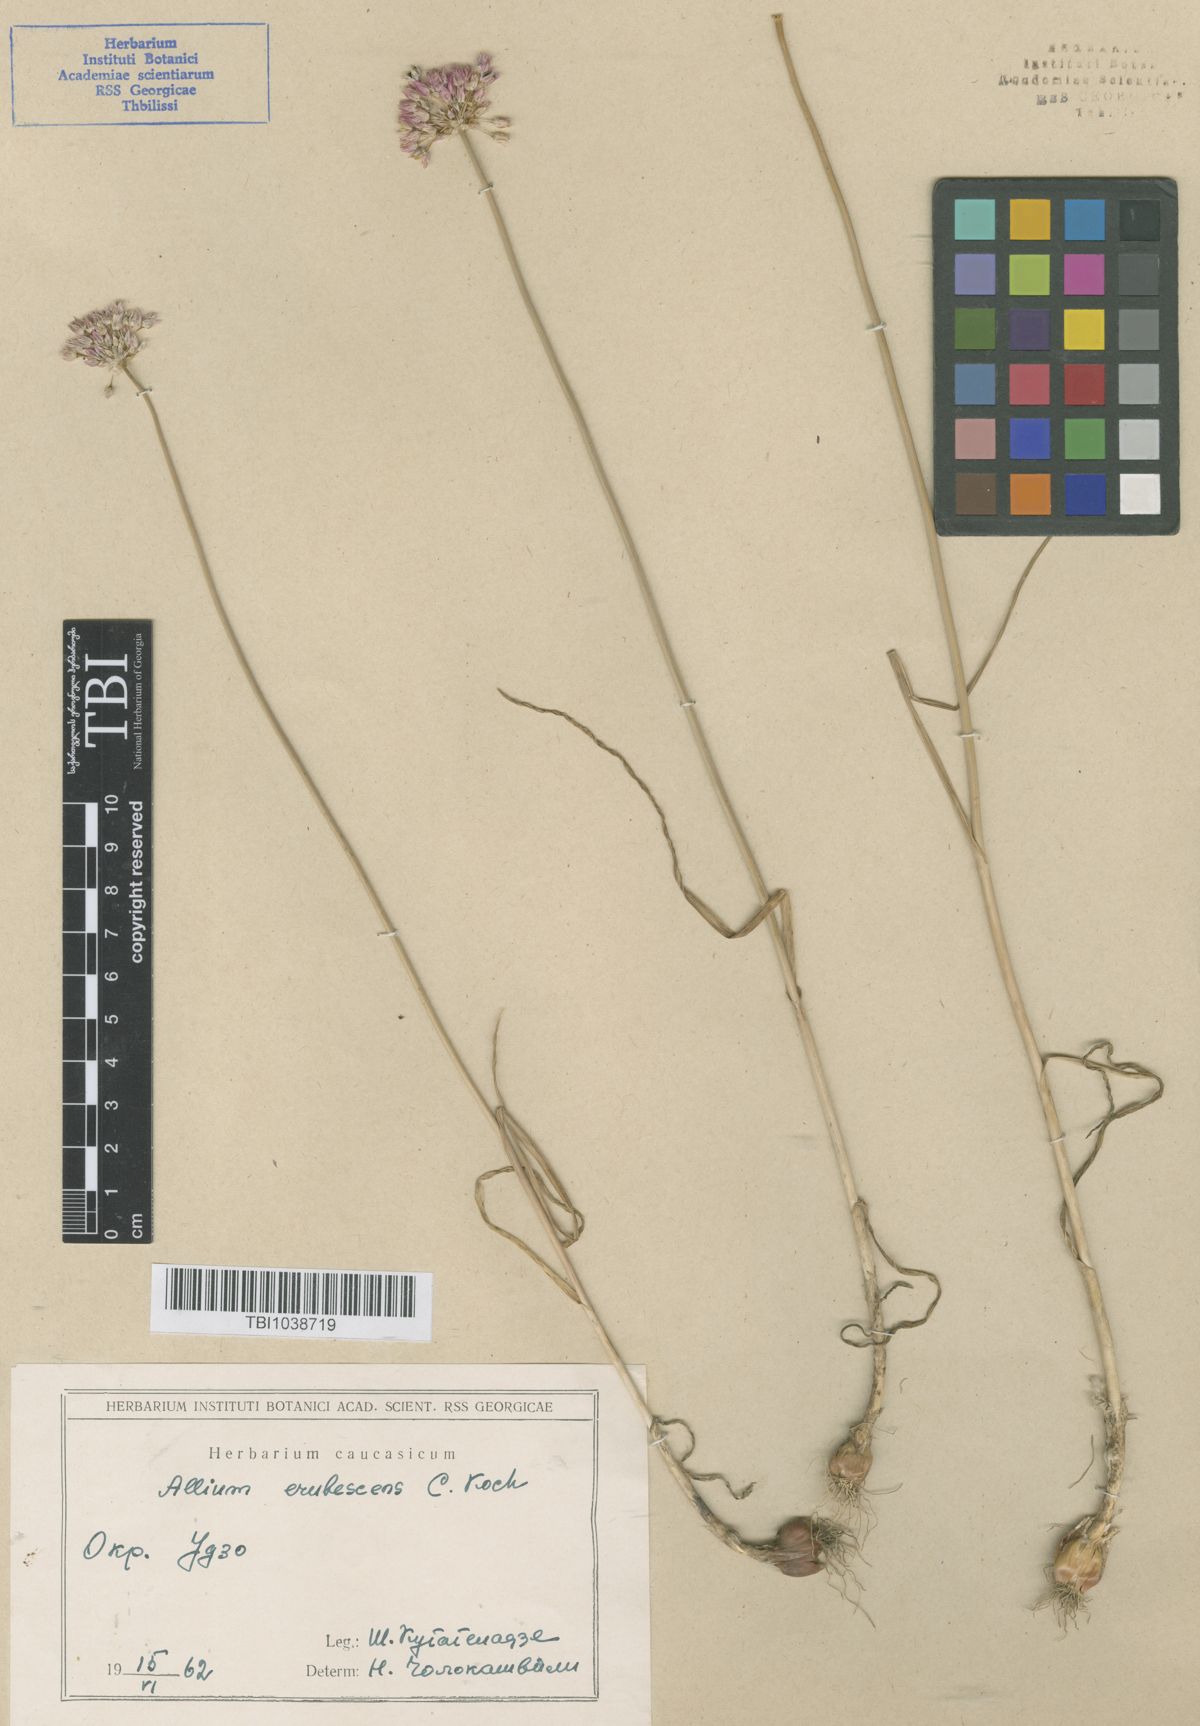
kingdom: Plantae
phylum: Tracheophyta
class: Liliopsida
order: Asparagales
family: Amaryllidaceae
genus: Allium
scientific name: Allium erubescens
